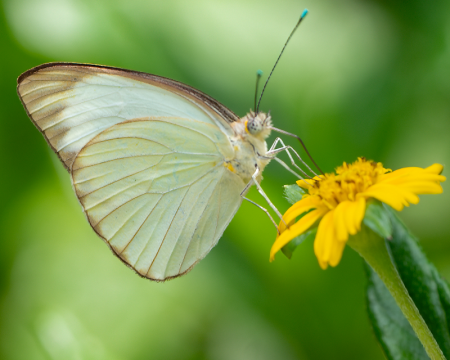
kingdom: Animalia
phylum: Arthropoda
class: Insecta
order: Lepidoptera
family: Pieridae
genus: Ascia
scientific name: Ascia monuste
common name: Great Southern White
